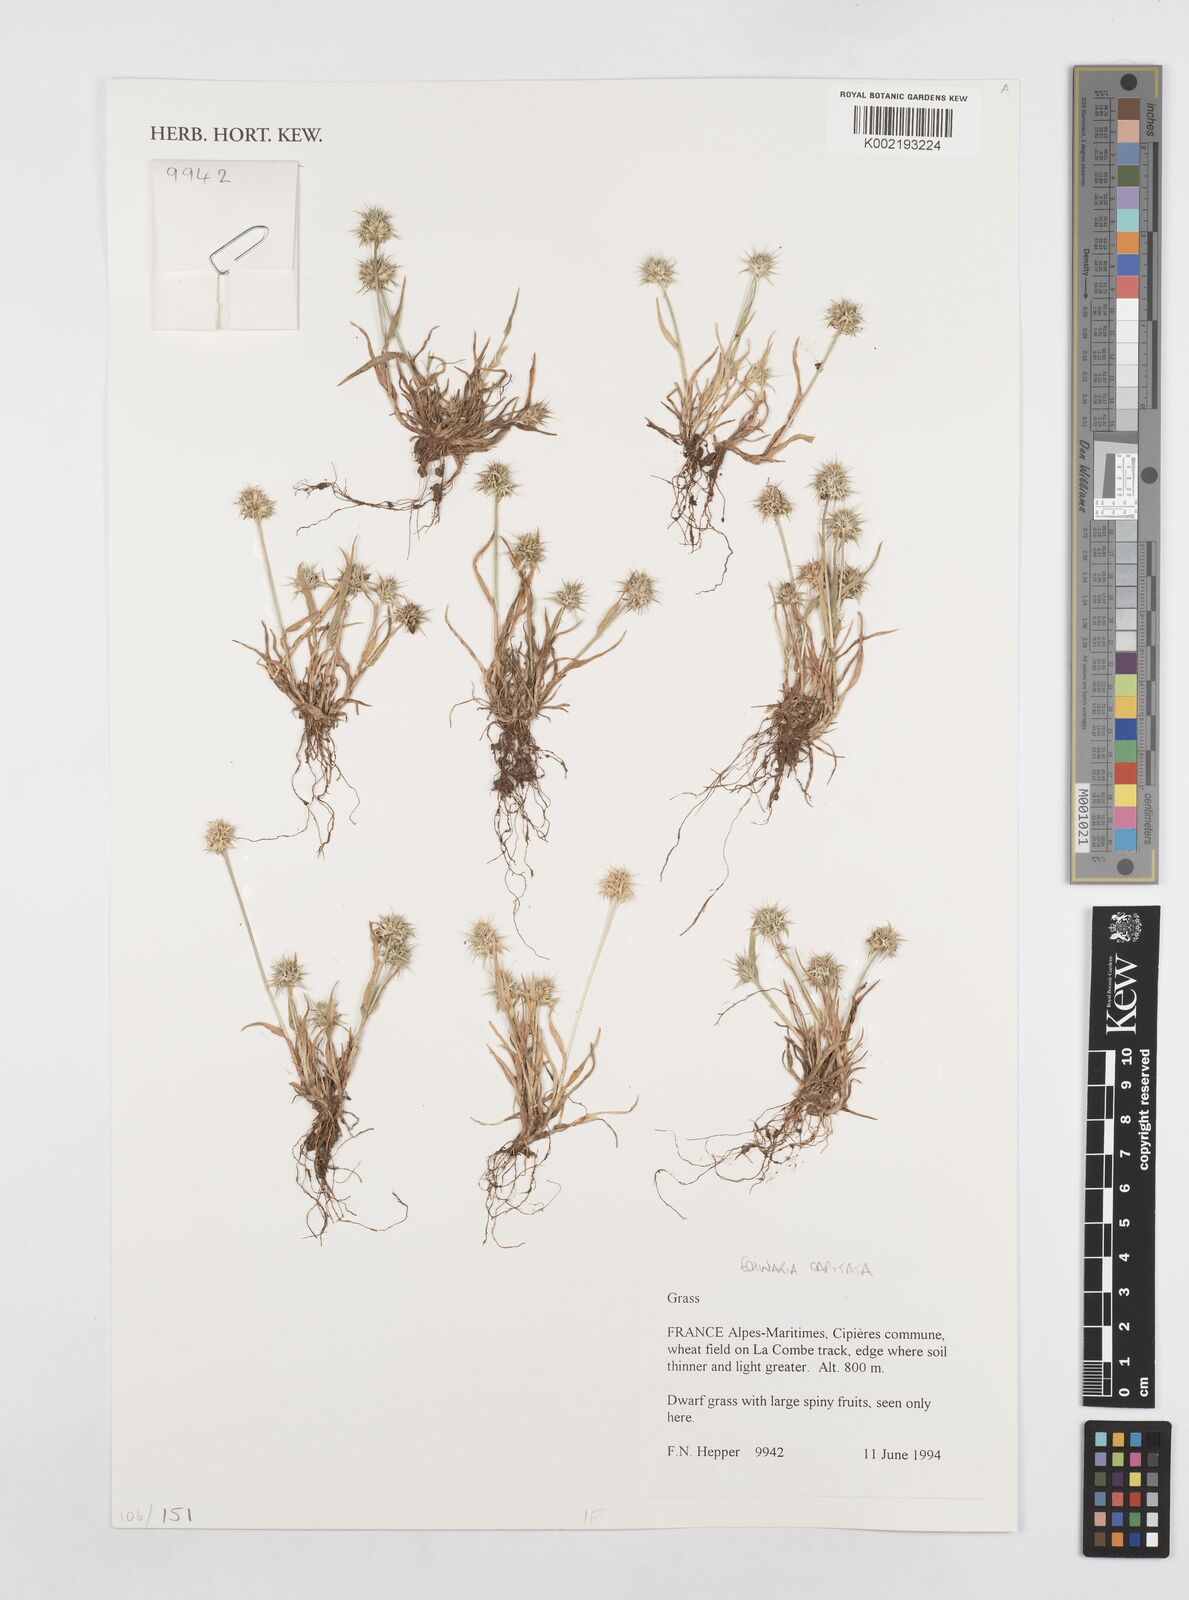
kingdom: Plantae
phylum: Tracheophyta
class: Liliopsida
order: Poales
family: Poaceae
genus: Echinaria
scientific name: Echinaria capitata
